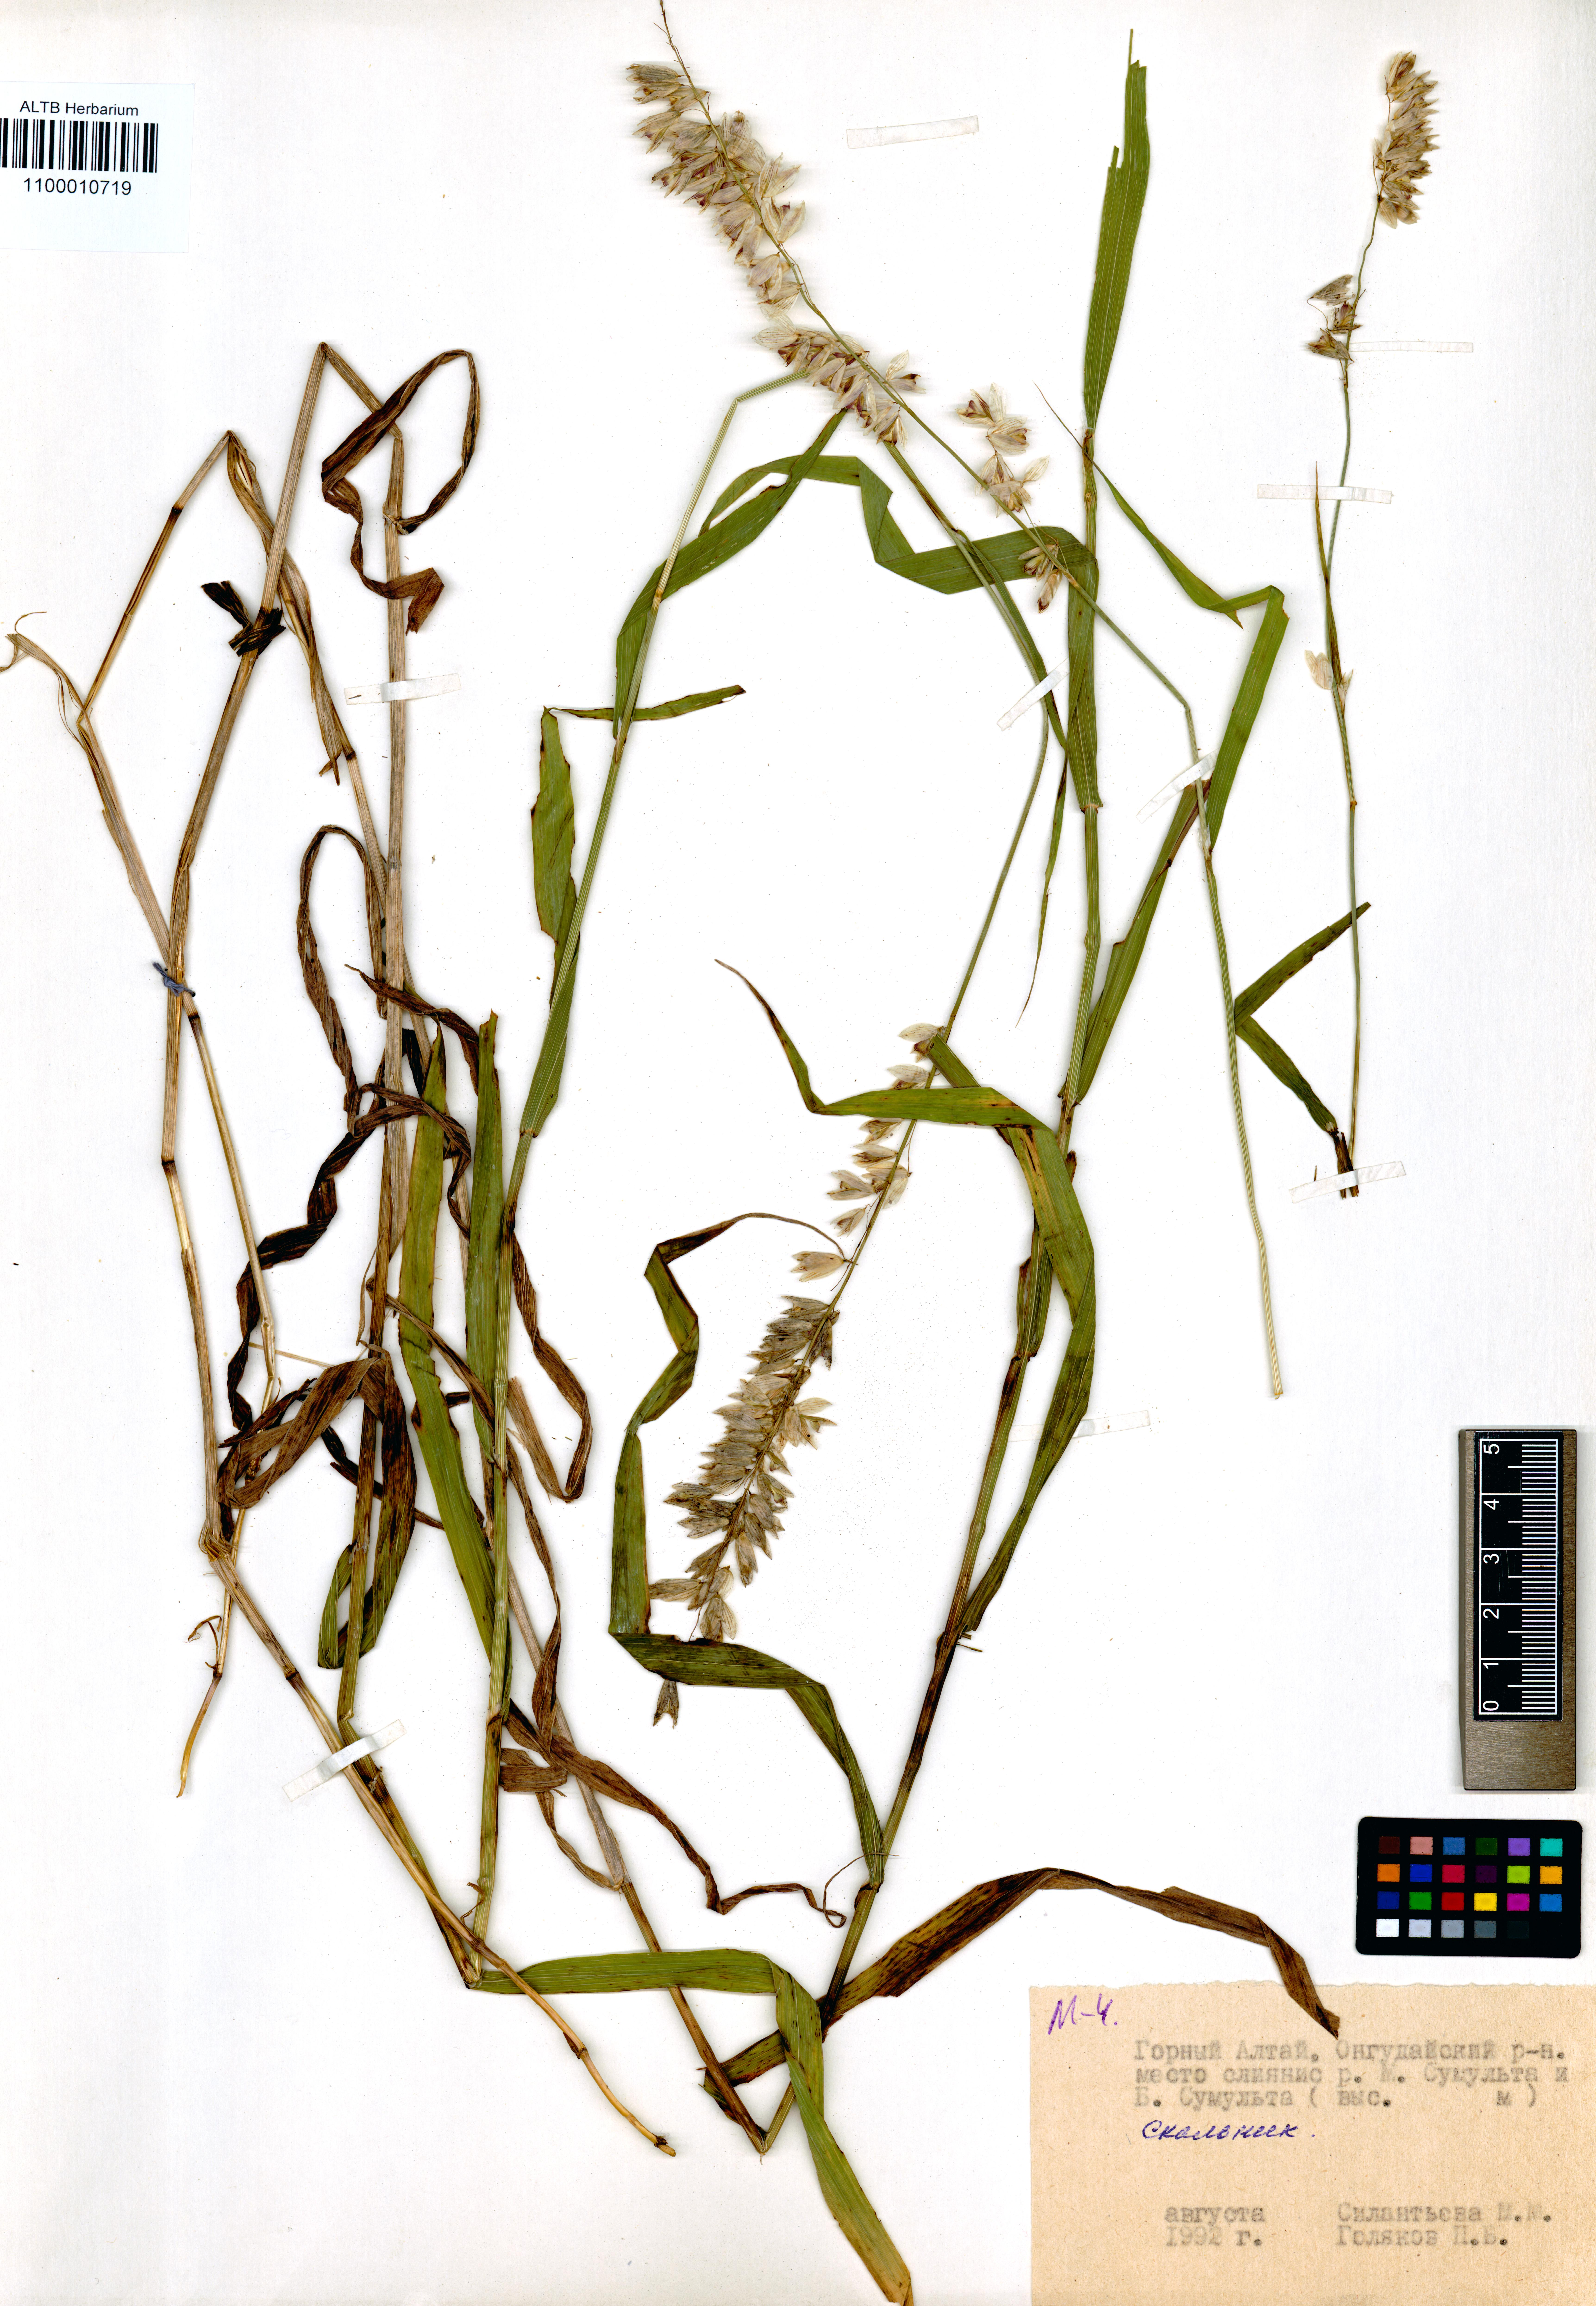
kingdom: Plantae
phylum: Tracheophyta
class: Liliopsida
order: Poales
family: Poaceae
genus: Melica
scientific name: Melica altissima
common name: Siberian melicgrass
